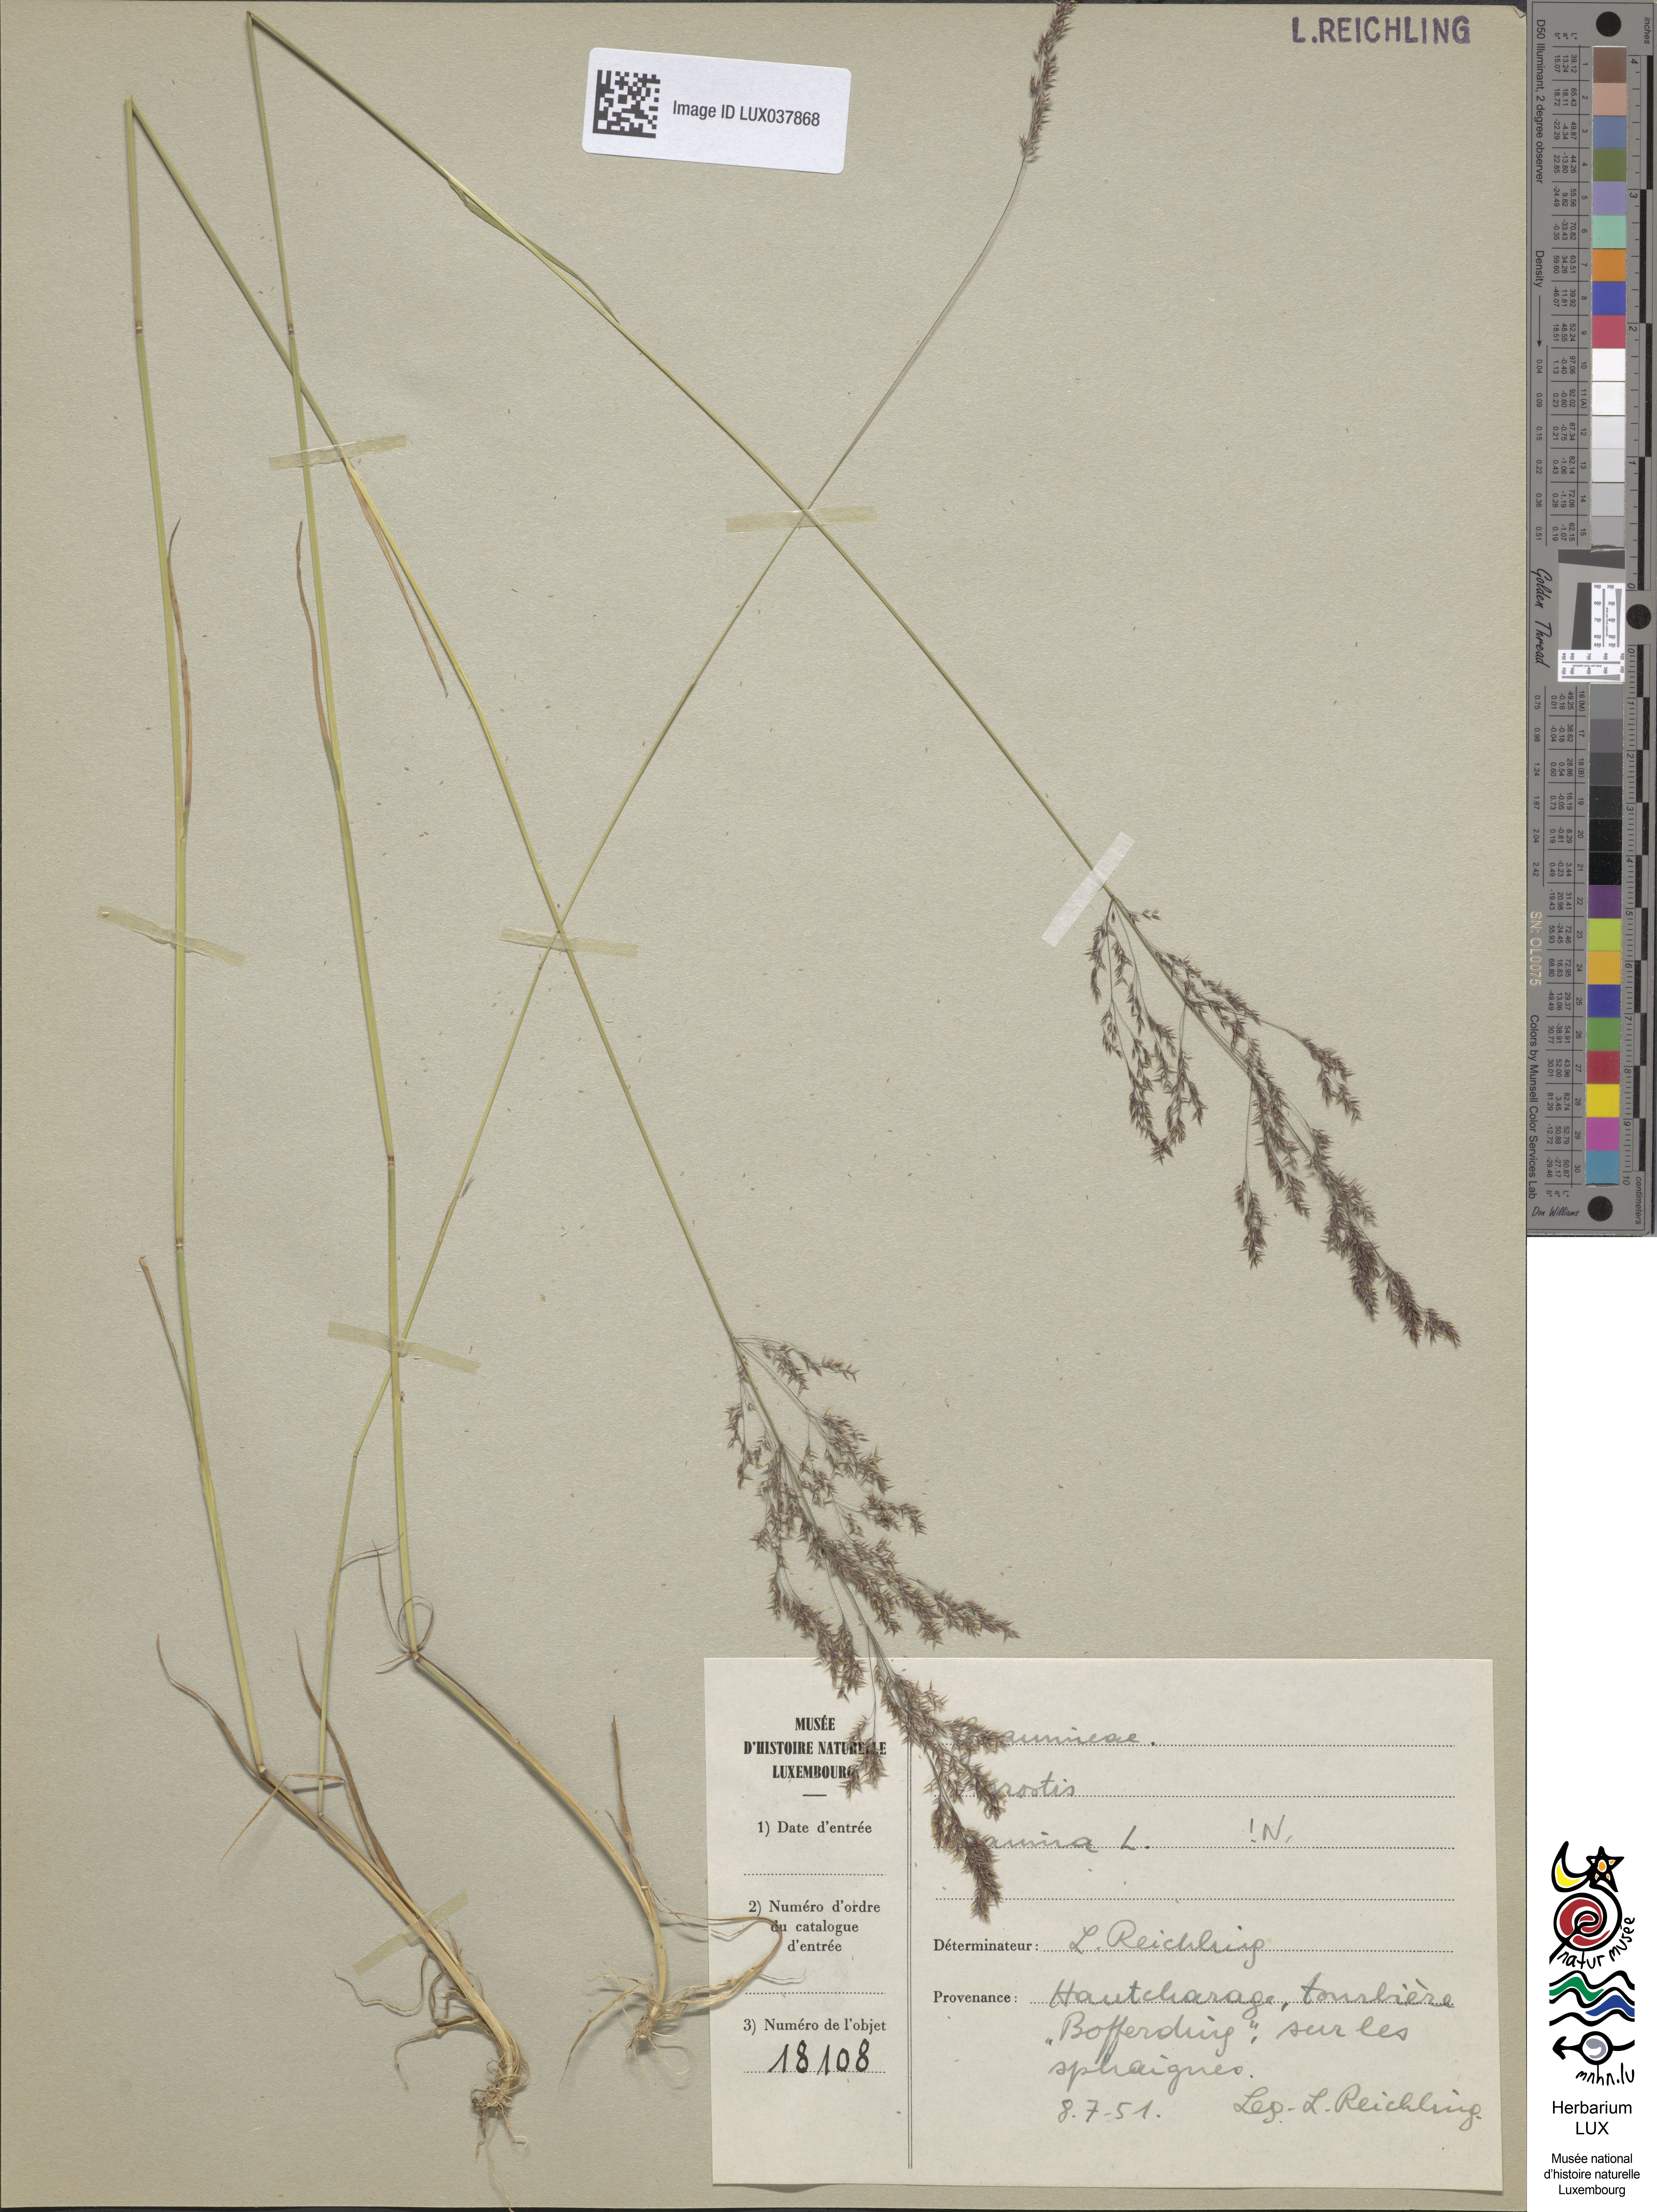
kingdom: Plantae
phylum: Tracheophyta
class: Liliopsida
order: Poales
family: Poaceae
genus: Agrostis
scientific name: Agrostis canina
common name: Velvet bent
